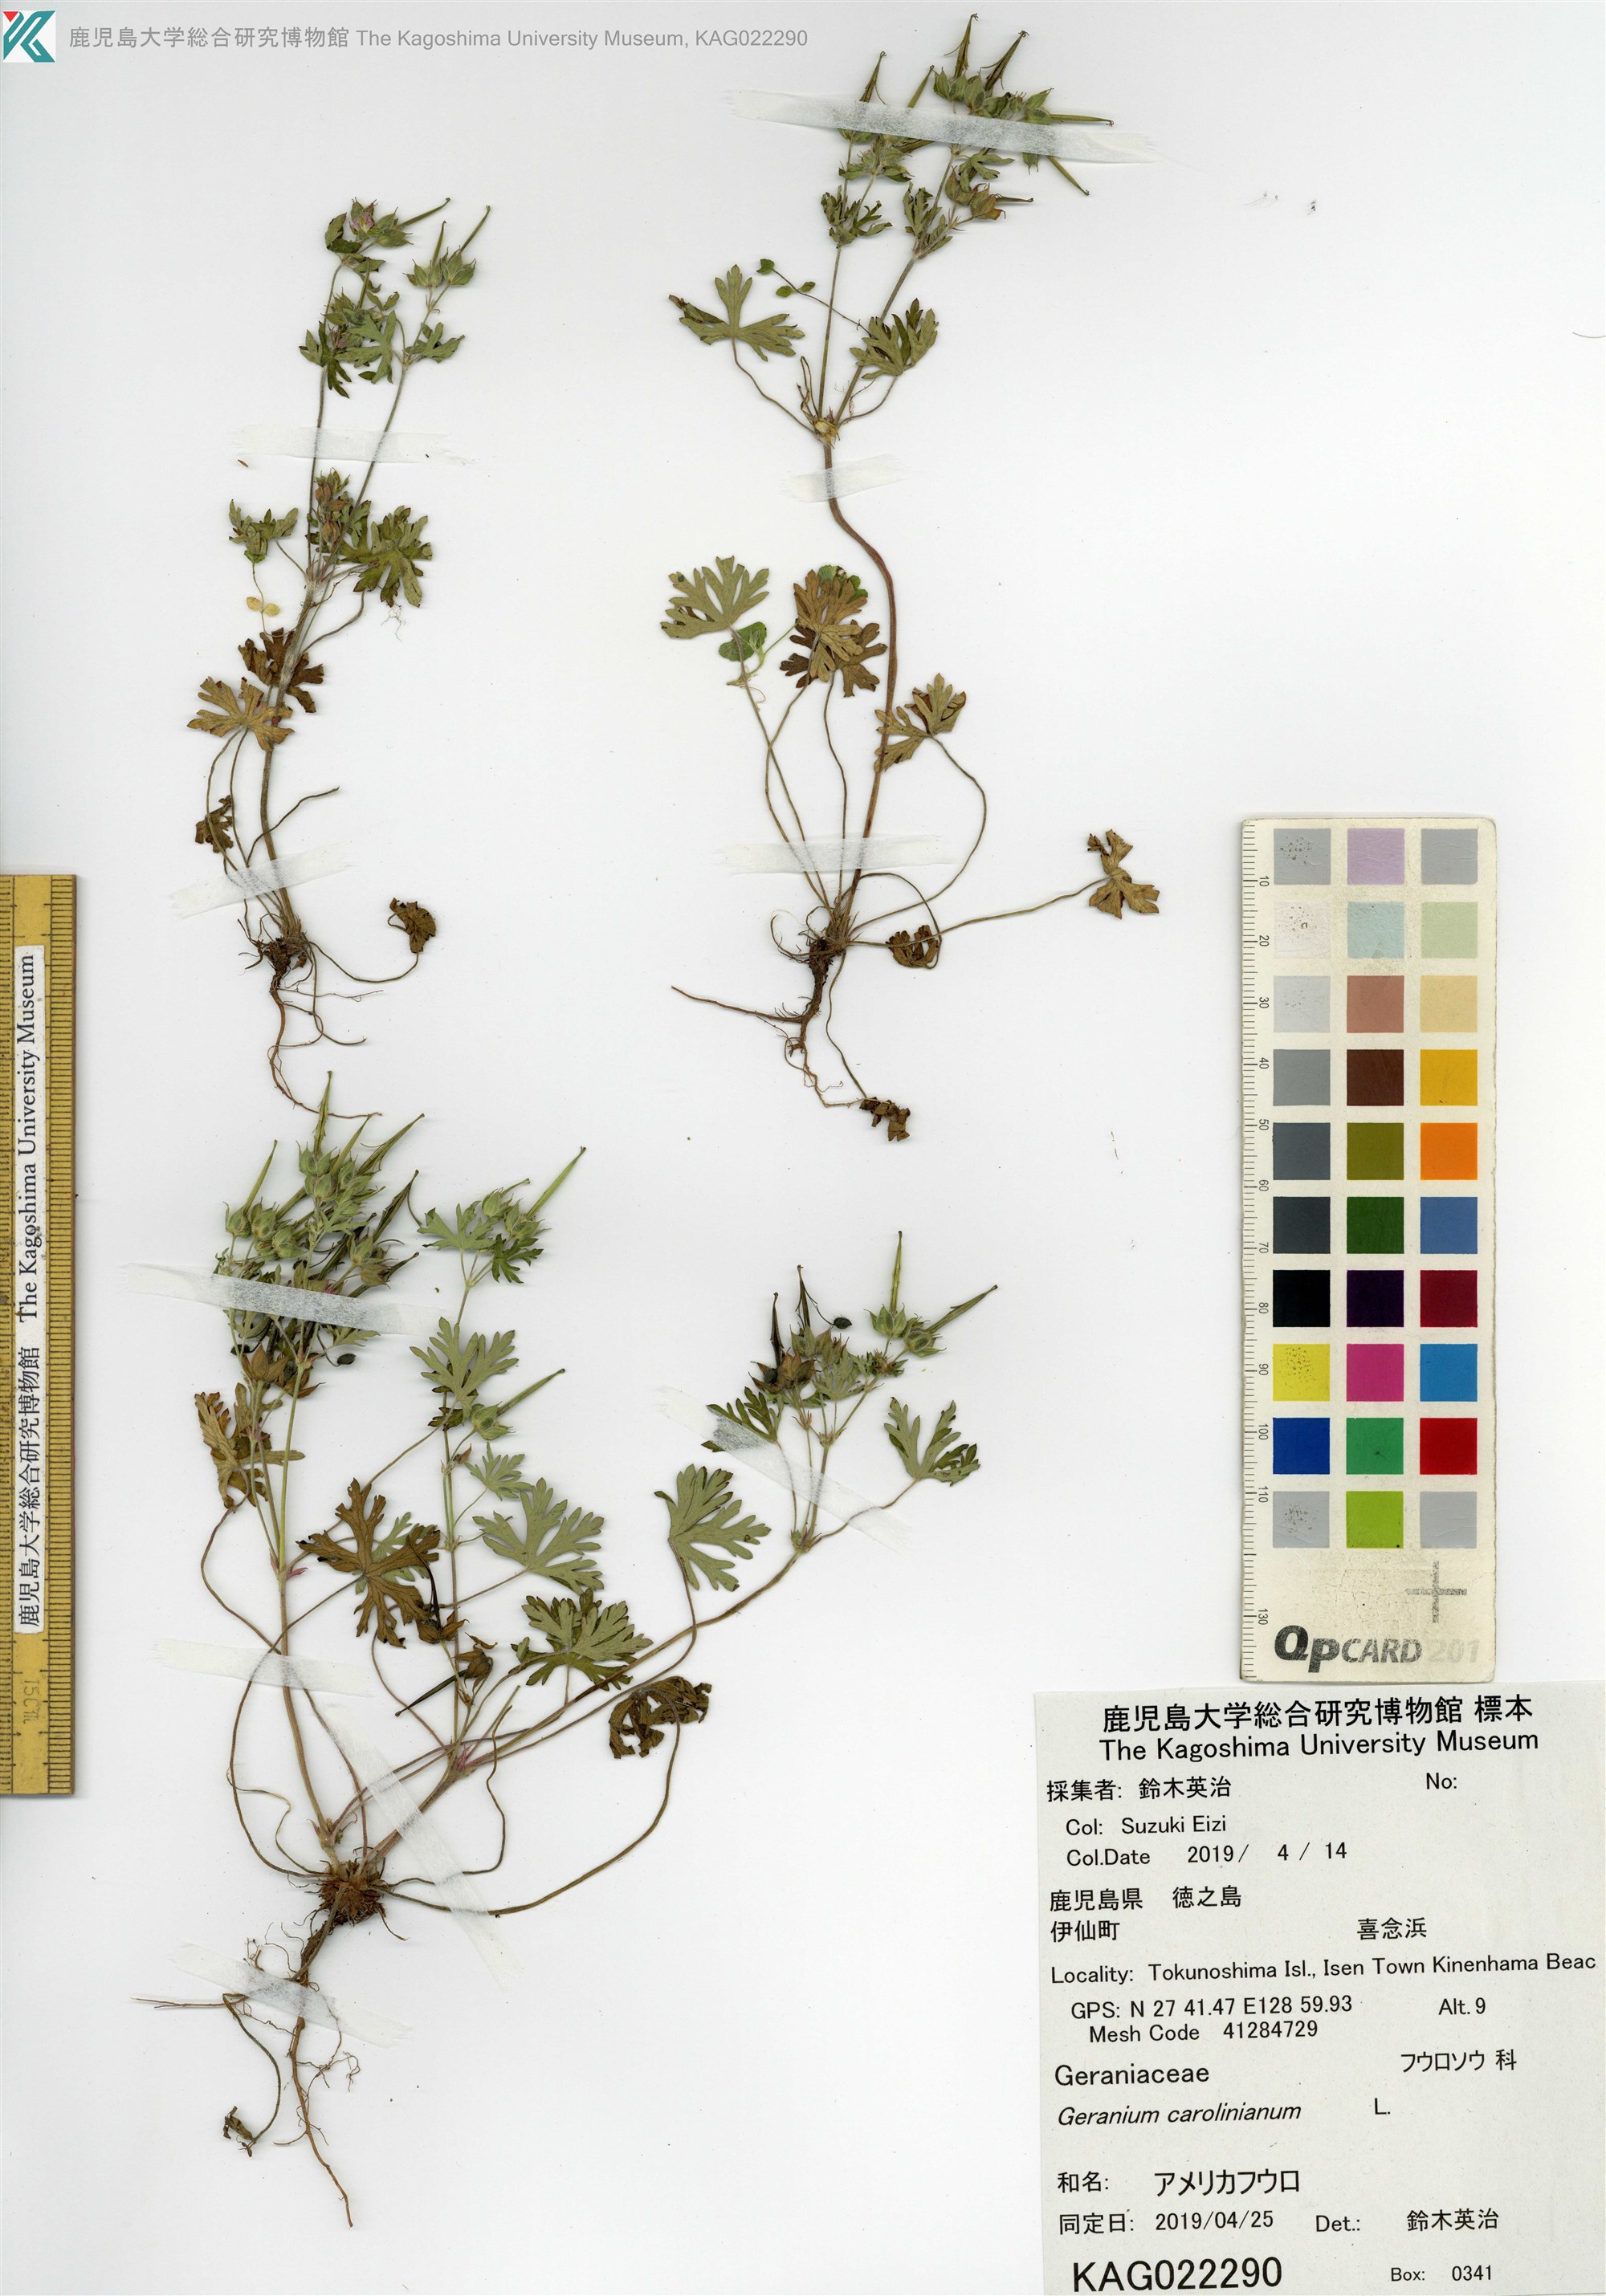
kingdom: Plantae
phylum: Tracheophyta
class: Magnoliopsida
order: Geraniales
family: Geraniaceae
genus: Geranium
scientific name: Geranium carolinianum
